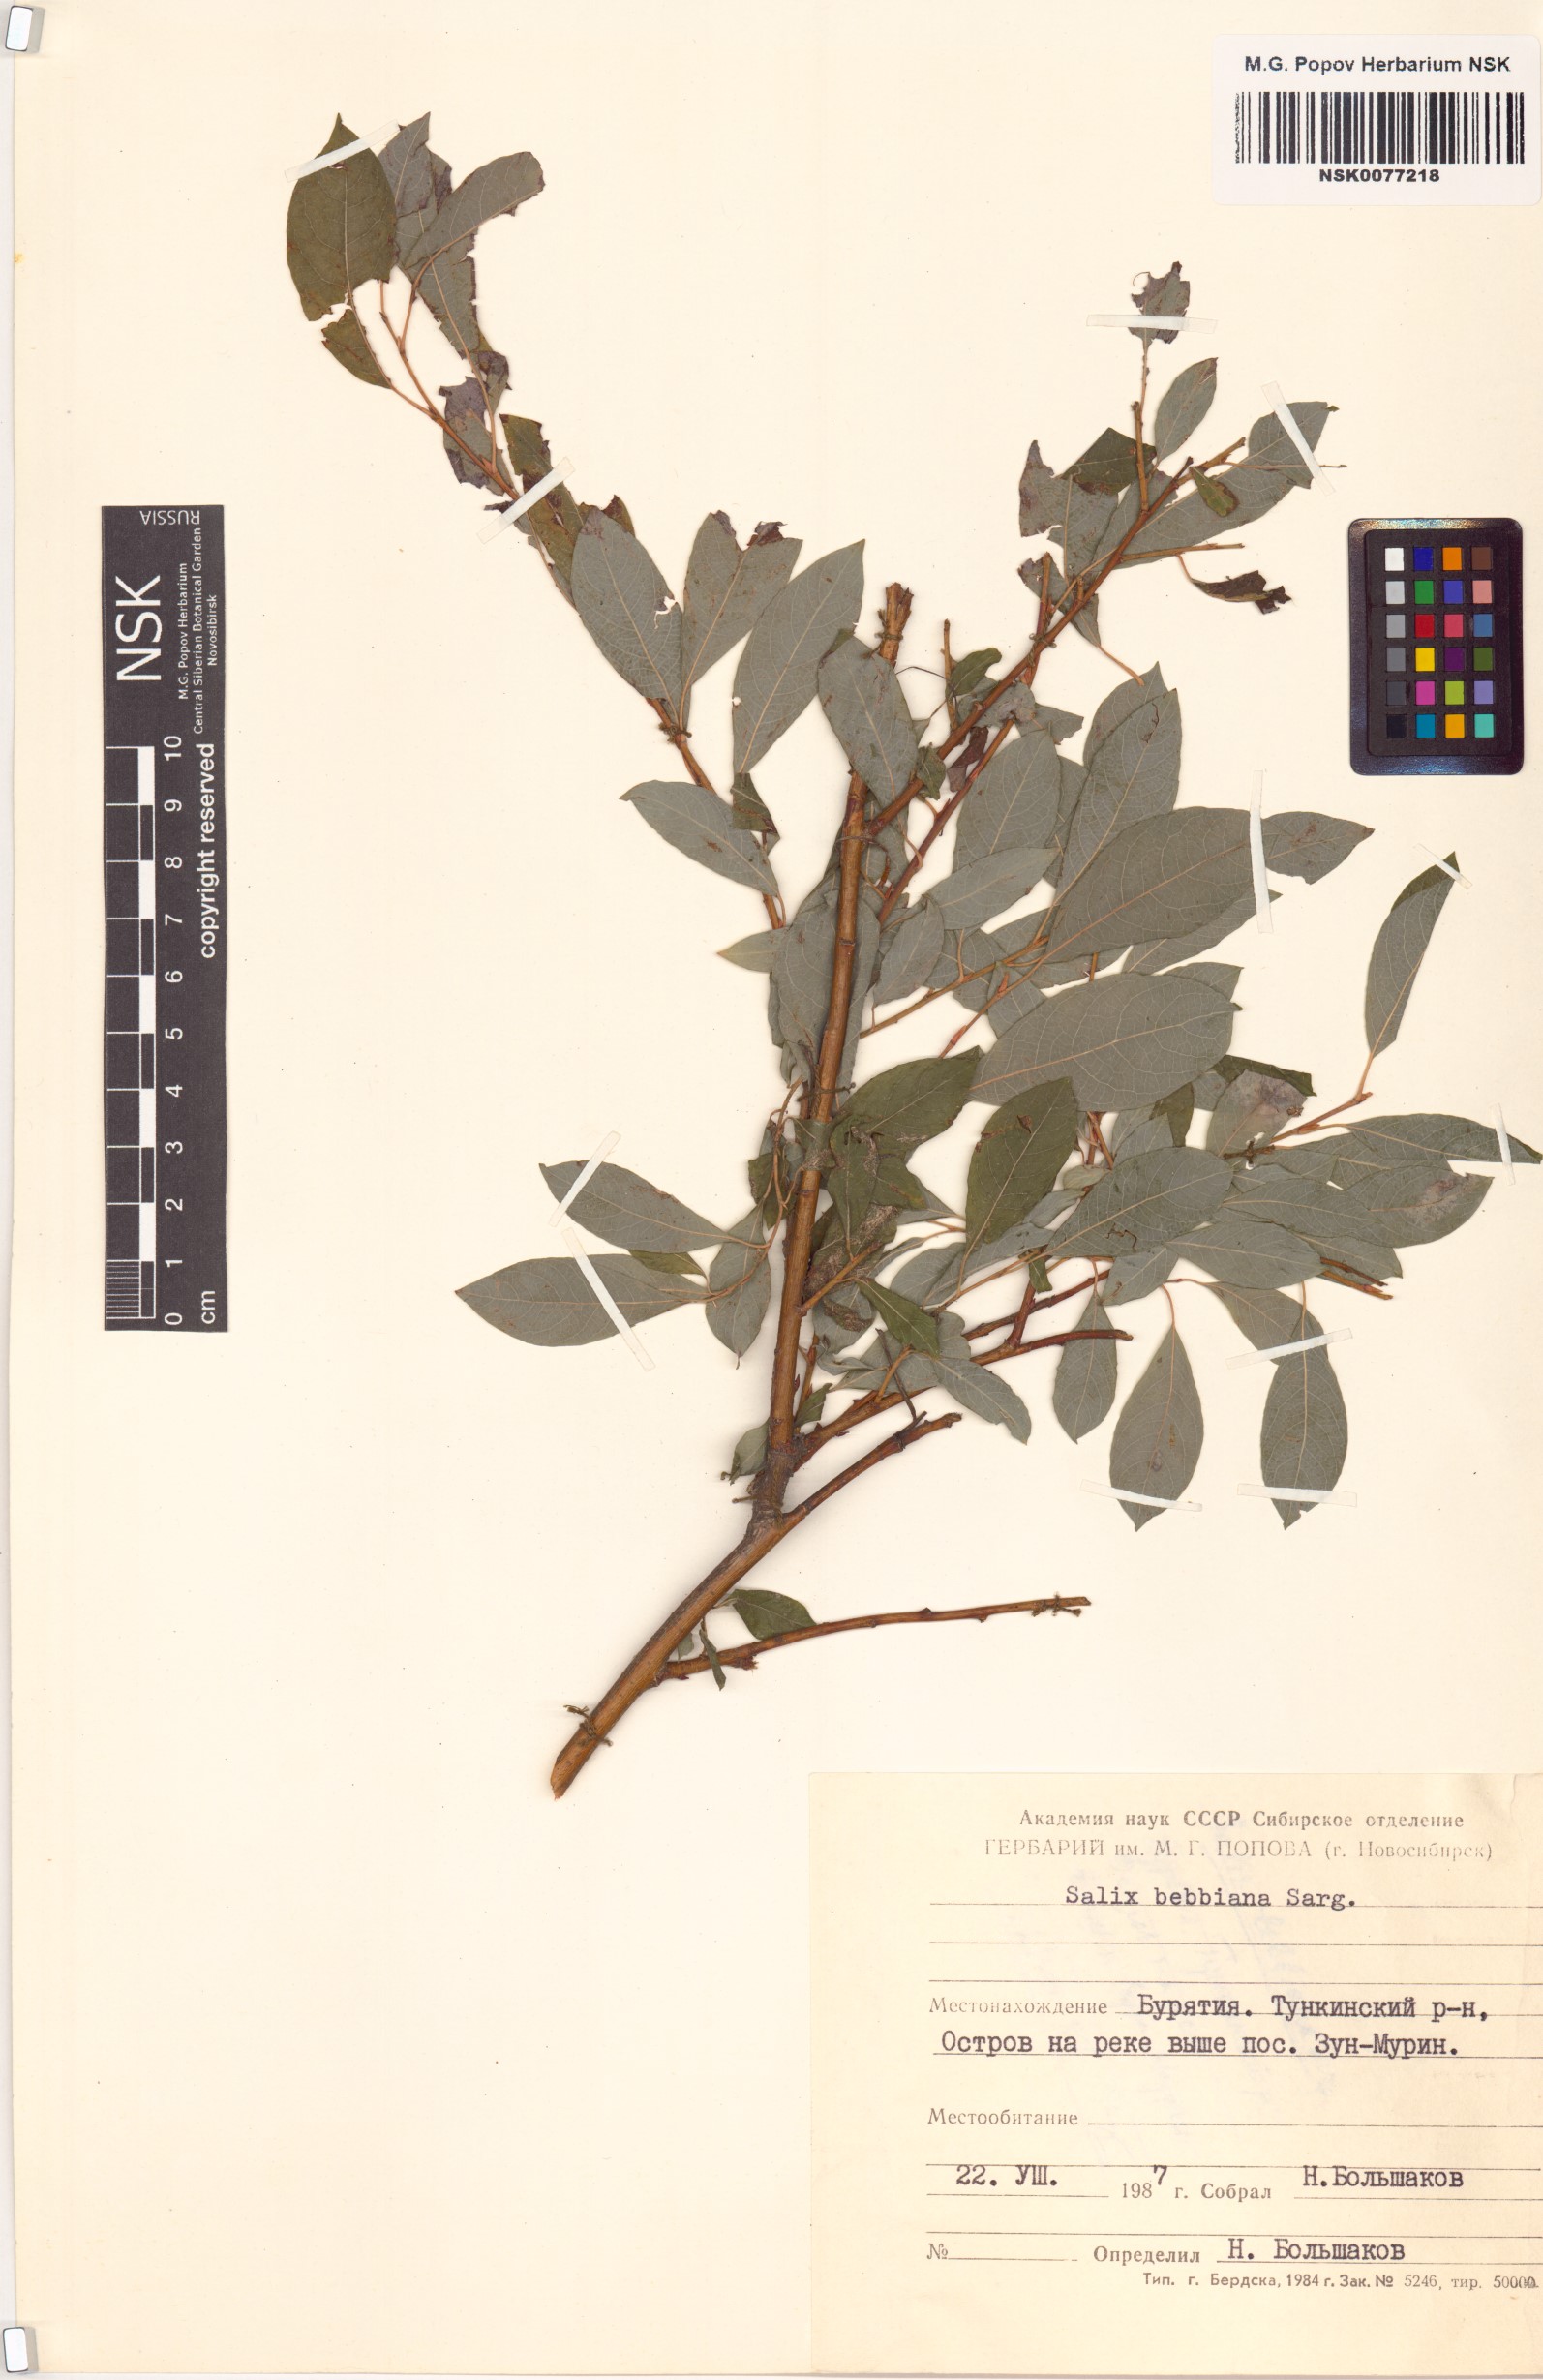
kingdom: Plantae
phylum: Tracheophyta
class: Magnoliopsida
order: Malpighiales
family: Salicaceae
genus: Salix
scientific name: Salix bebbiana
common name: Bebb's willow
